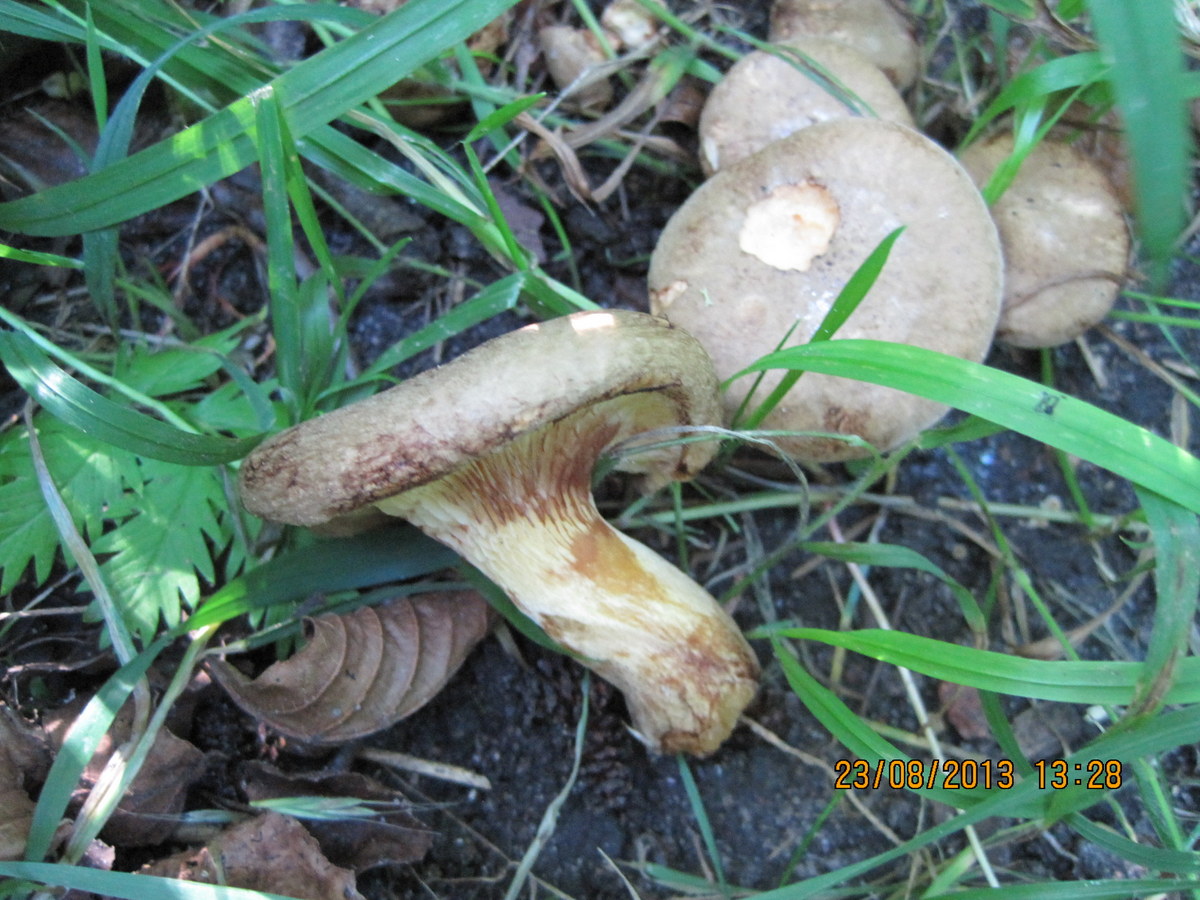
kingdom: Fungi
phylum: Basidiomycota
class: Agaricomycetes
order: Boletales
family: Paxillaceae
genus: Paxillus
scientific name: Paxillus rubicundulus
